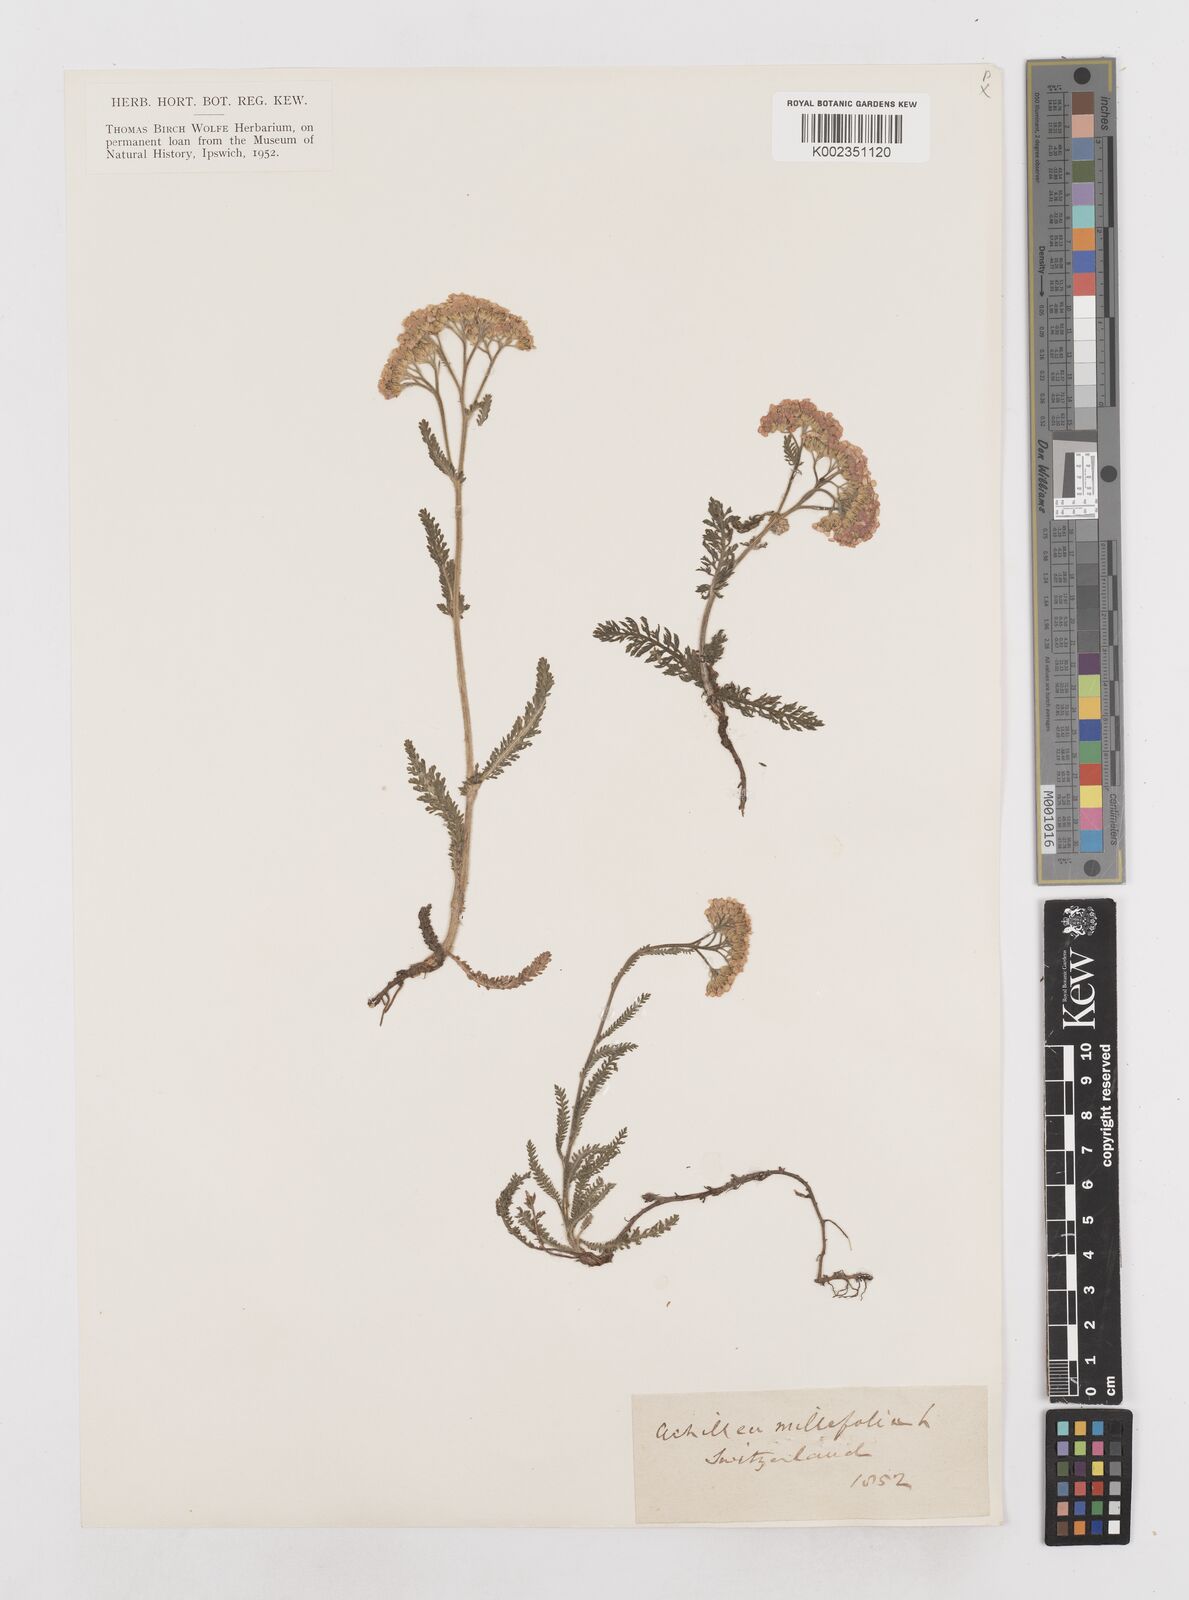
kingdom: Plantae
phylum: Tracheophyta
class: Magnoliopsida
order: Asterales
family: Asteraceae
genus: Achillea
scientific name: Achillea millefolium
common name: Yarrow
